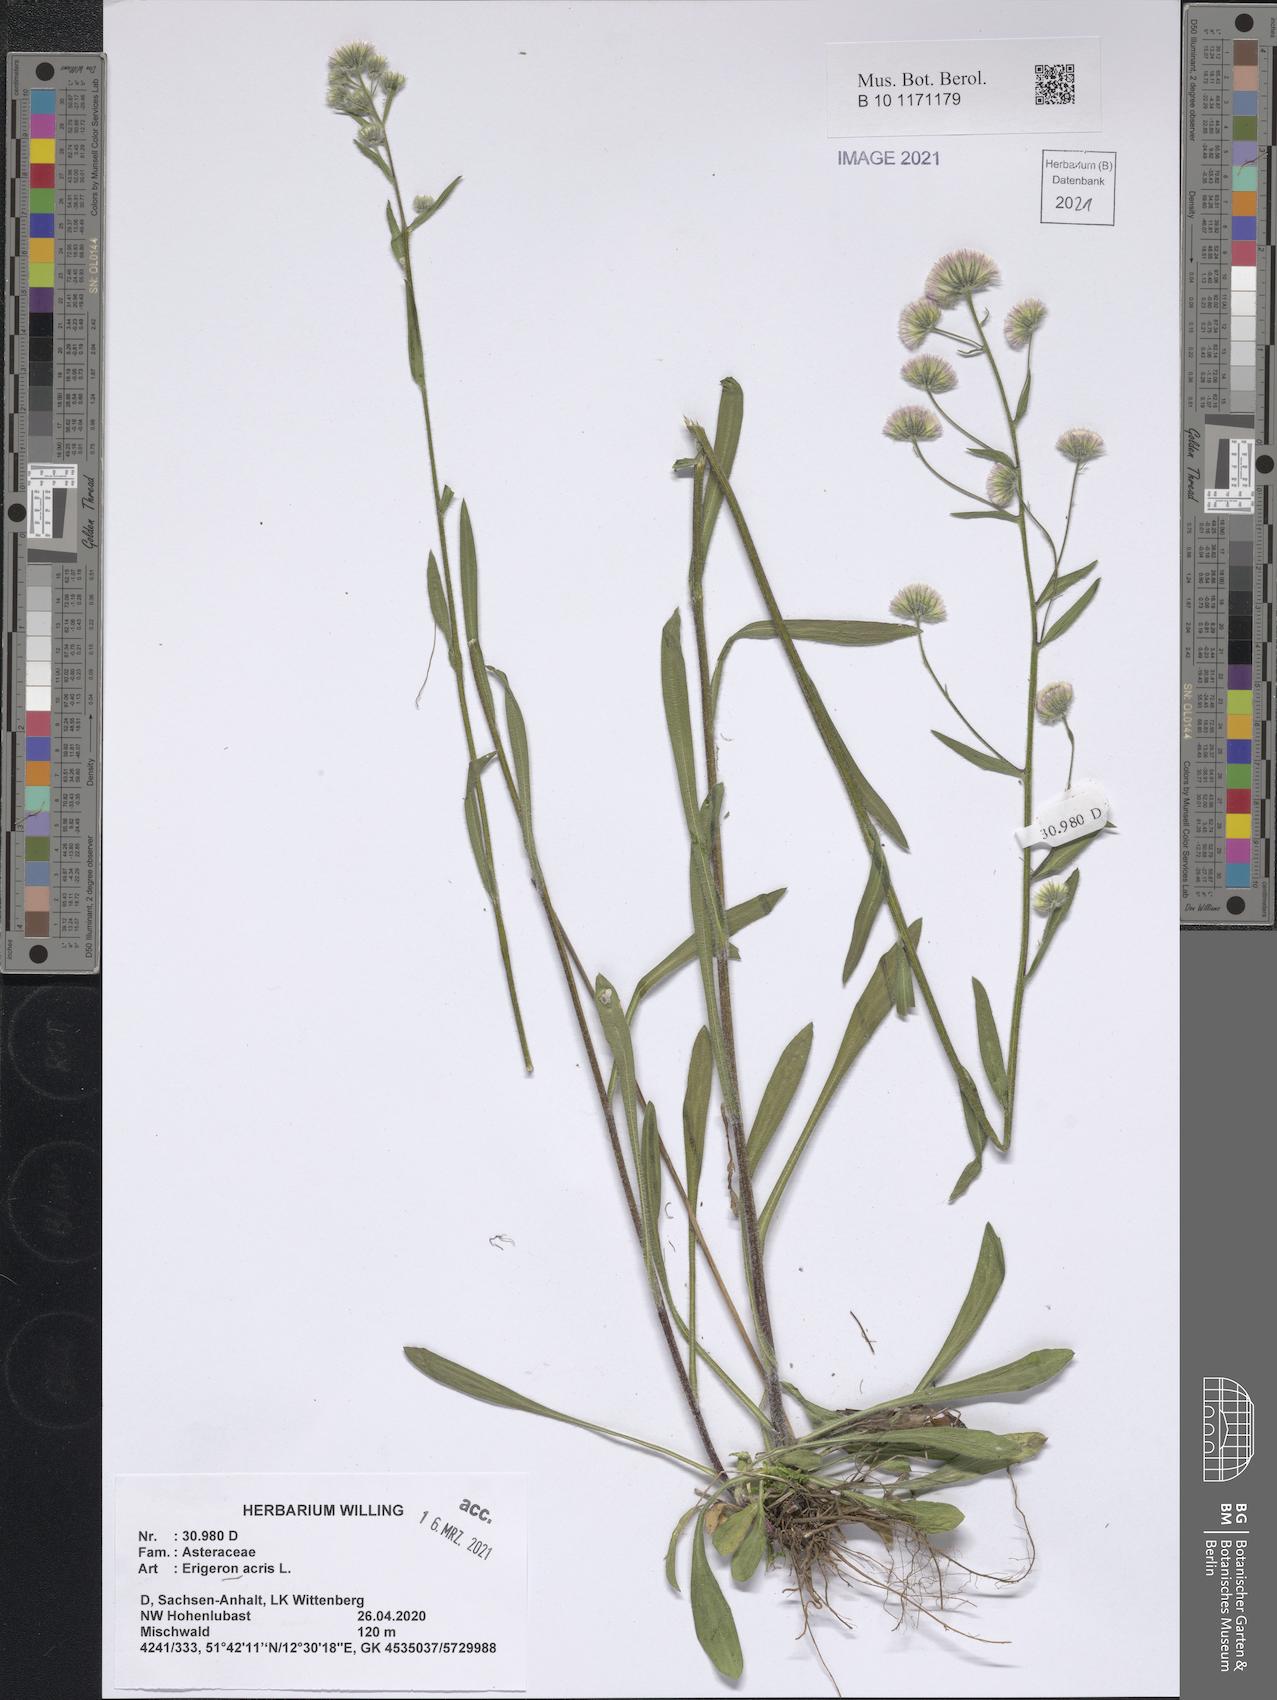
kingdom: Plantae
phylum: Tracheophyta
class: Magnoliopsida
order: Asterales
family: Asteraceae
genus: Erigeron
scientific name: Erigeron acris
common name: Blue fleabane
